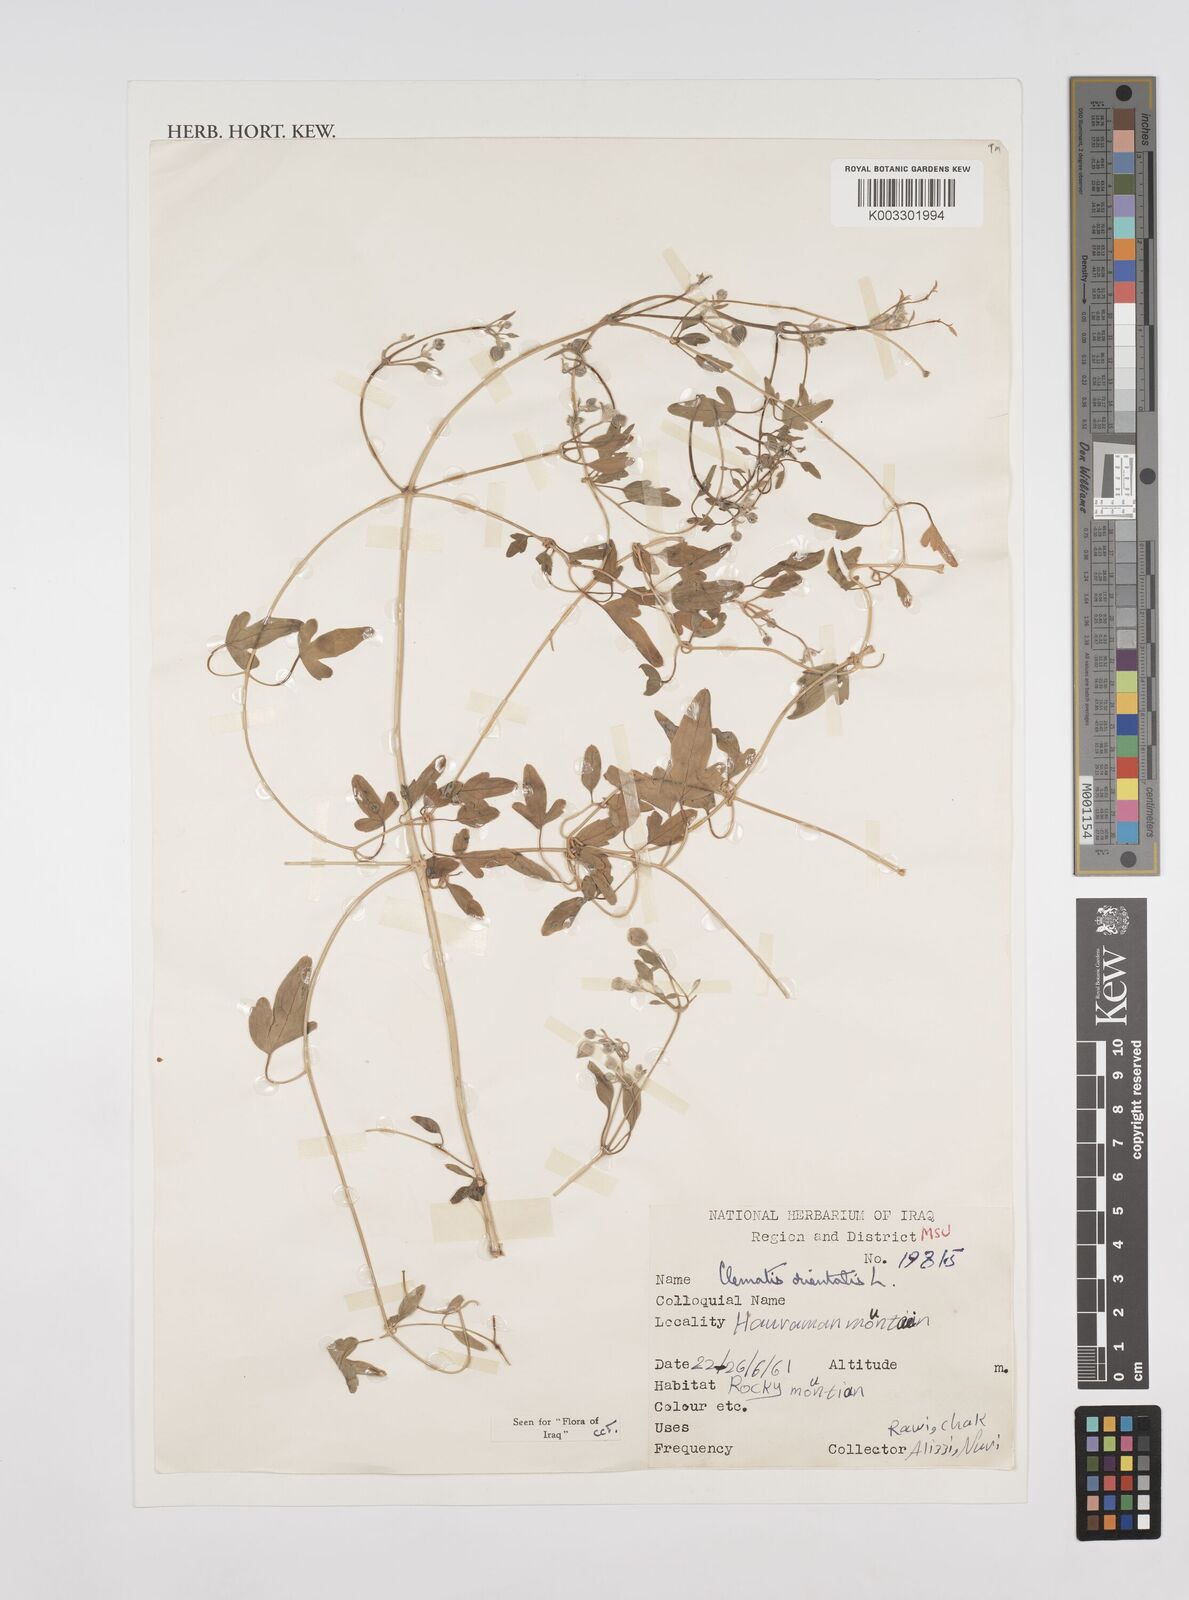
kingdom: Plantae
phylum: Tracheophyta
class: Magnoliopsida
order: Ranunculales
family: Ranunculaceae
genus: Clematis
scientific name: Clematis orientalis
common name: Oriental virgin's-bower
